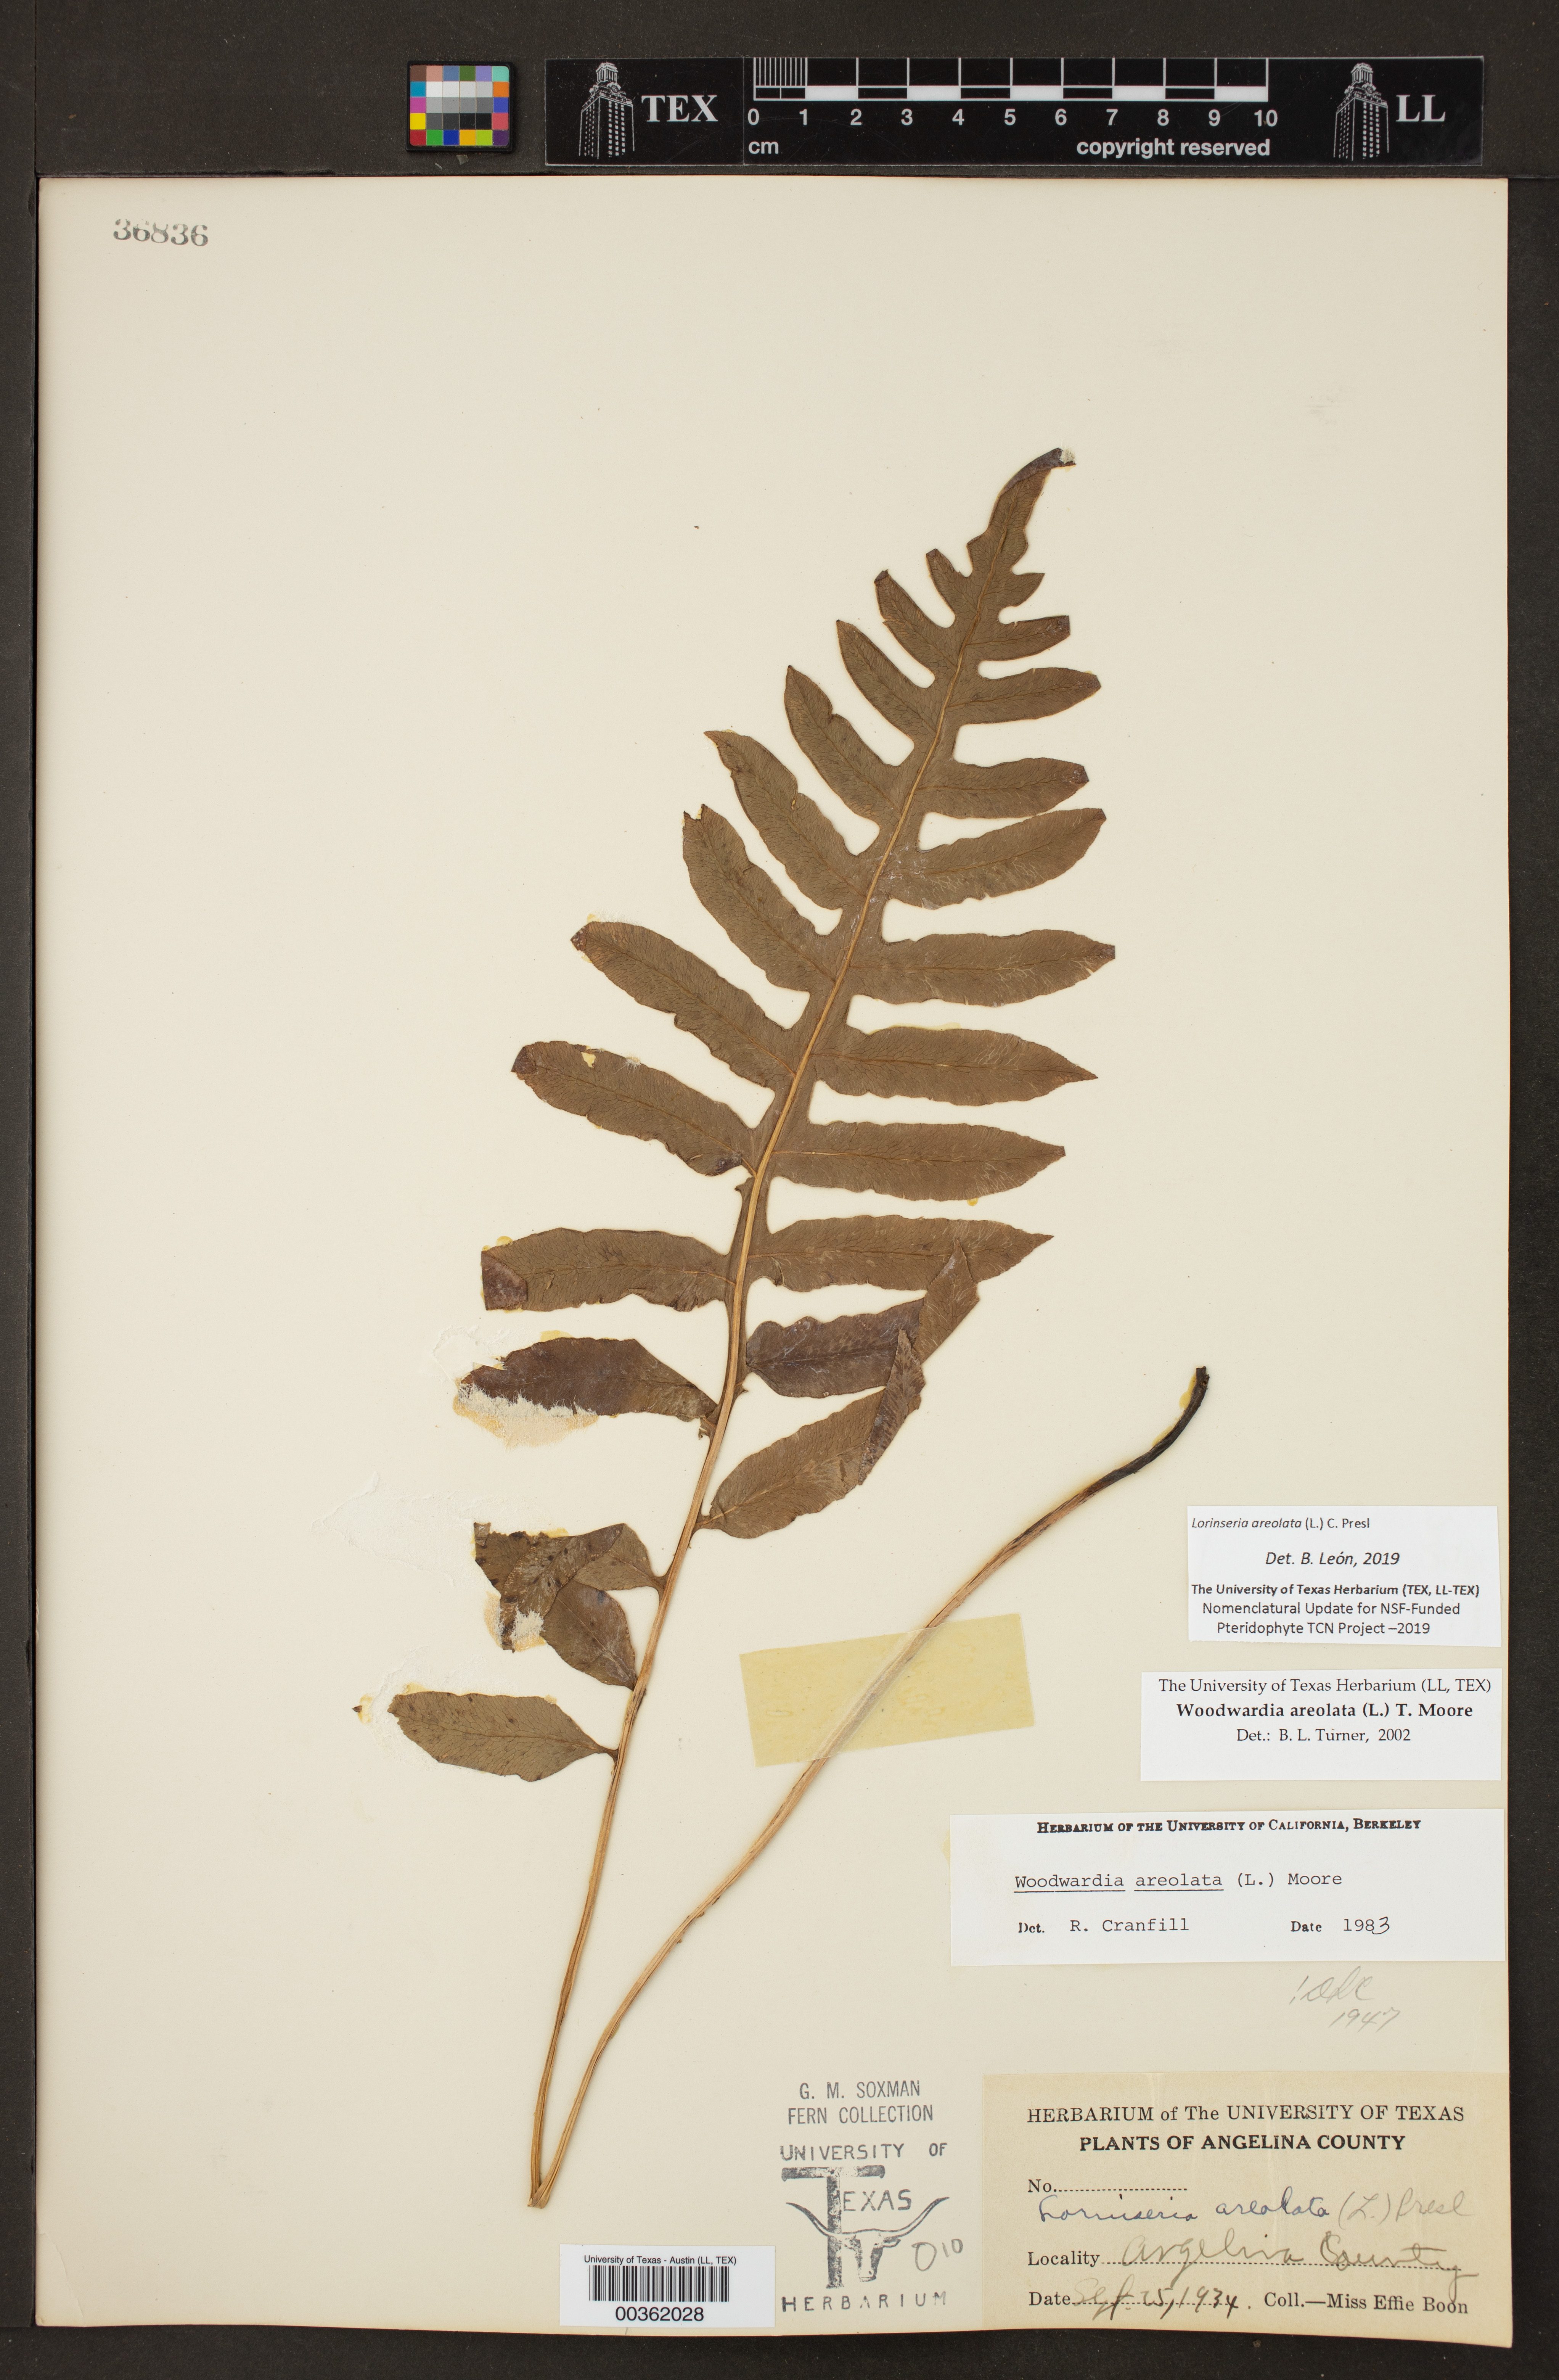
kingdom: Plantae
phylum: Tracheophyta
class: Polypodiopsida
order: Polypodiales
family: Blechnaceae
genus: Lorinseria
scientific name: Lorinseria areolata
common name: Dwarf chain fern
